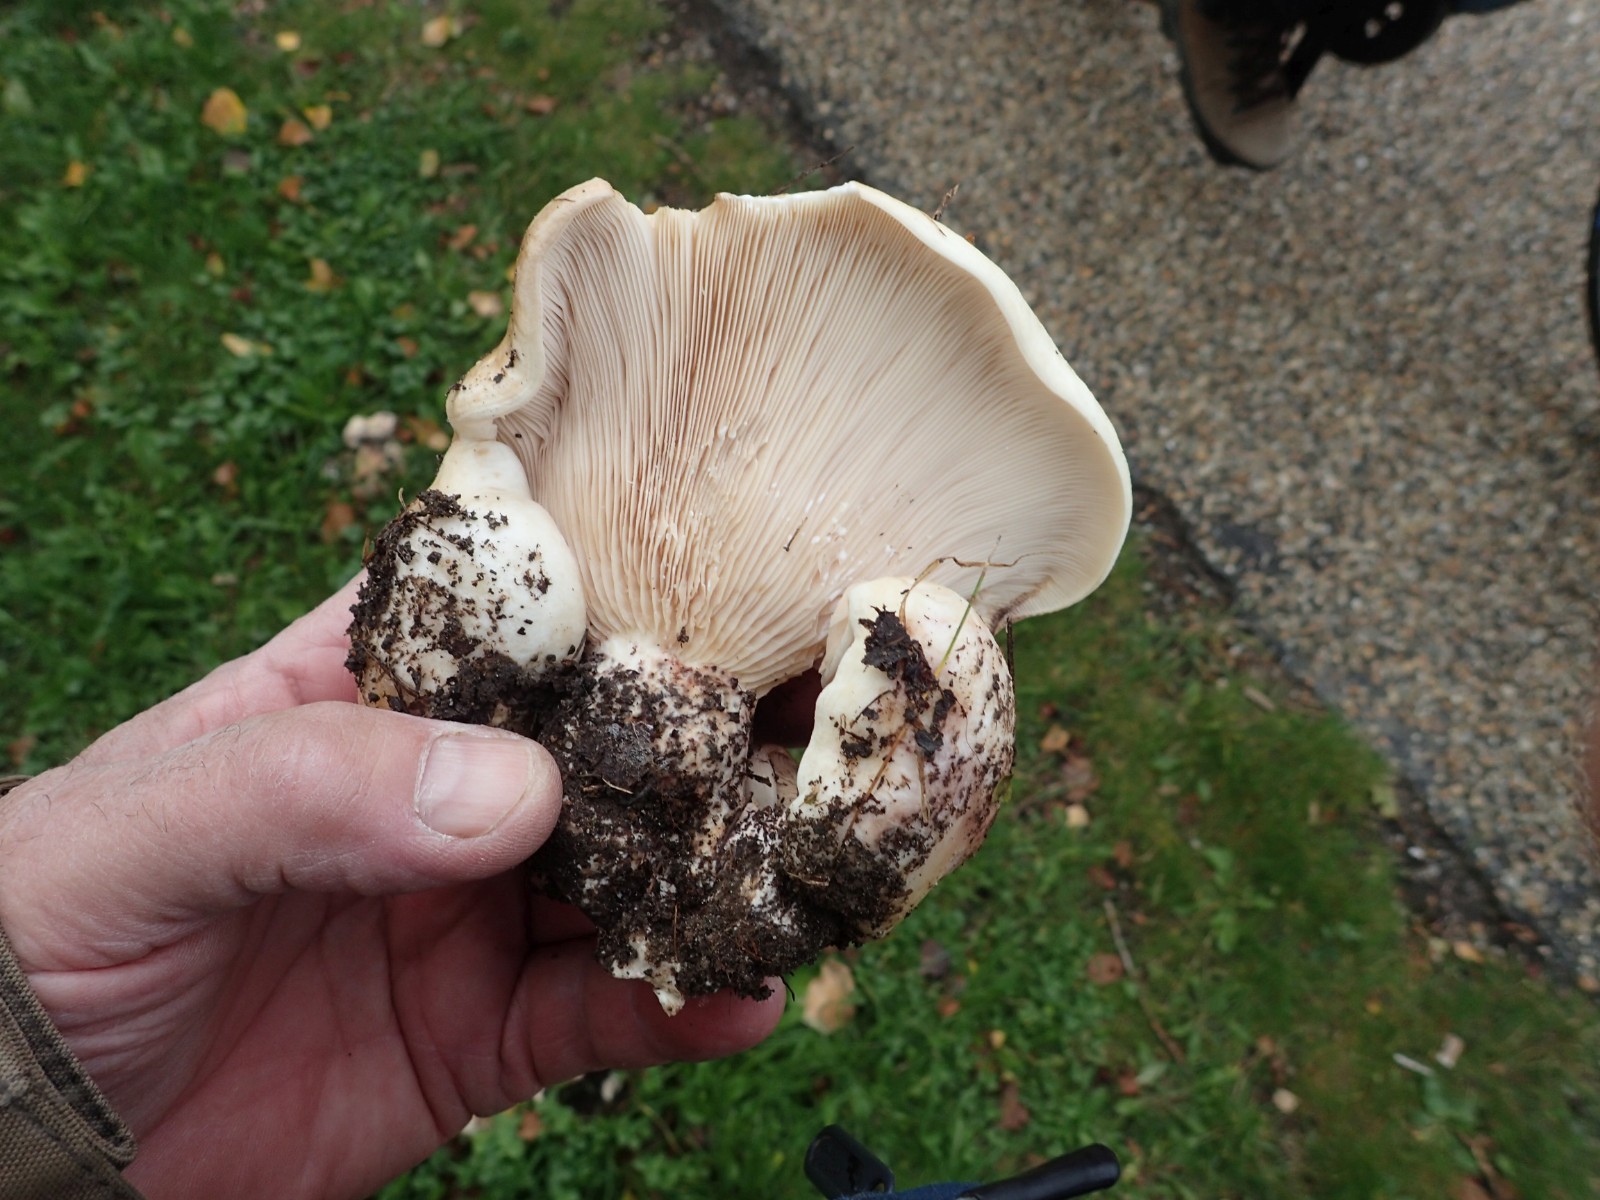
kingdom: Fungi
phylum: Basidiomycota
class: Agaricomycetes
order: Russulales
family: Russulaceae
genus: Lactarius
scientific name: Lactarius controversus
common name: rosabladet mælkehat
